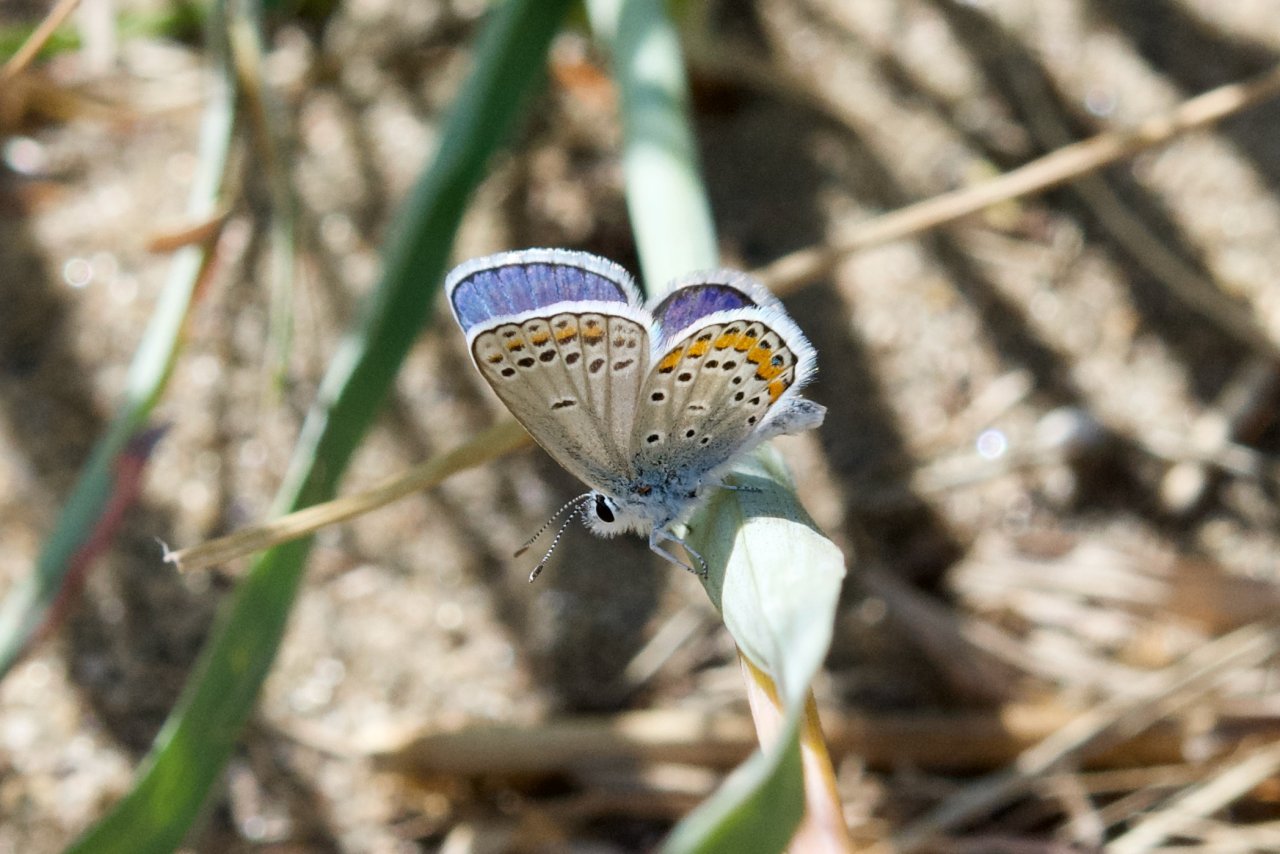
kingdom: Animalia
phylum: Arthropoda
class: Insecta
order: Lepidoptera
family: Lycaenidae
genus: Lycaeides
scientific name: Lycaeides melissa
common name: Melissa Blue
